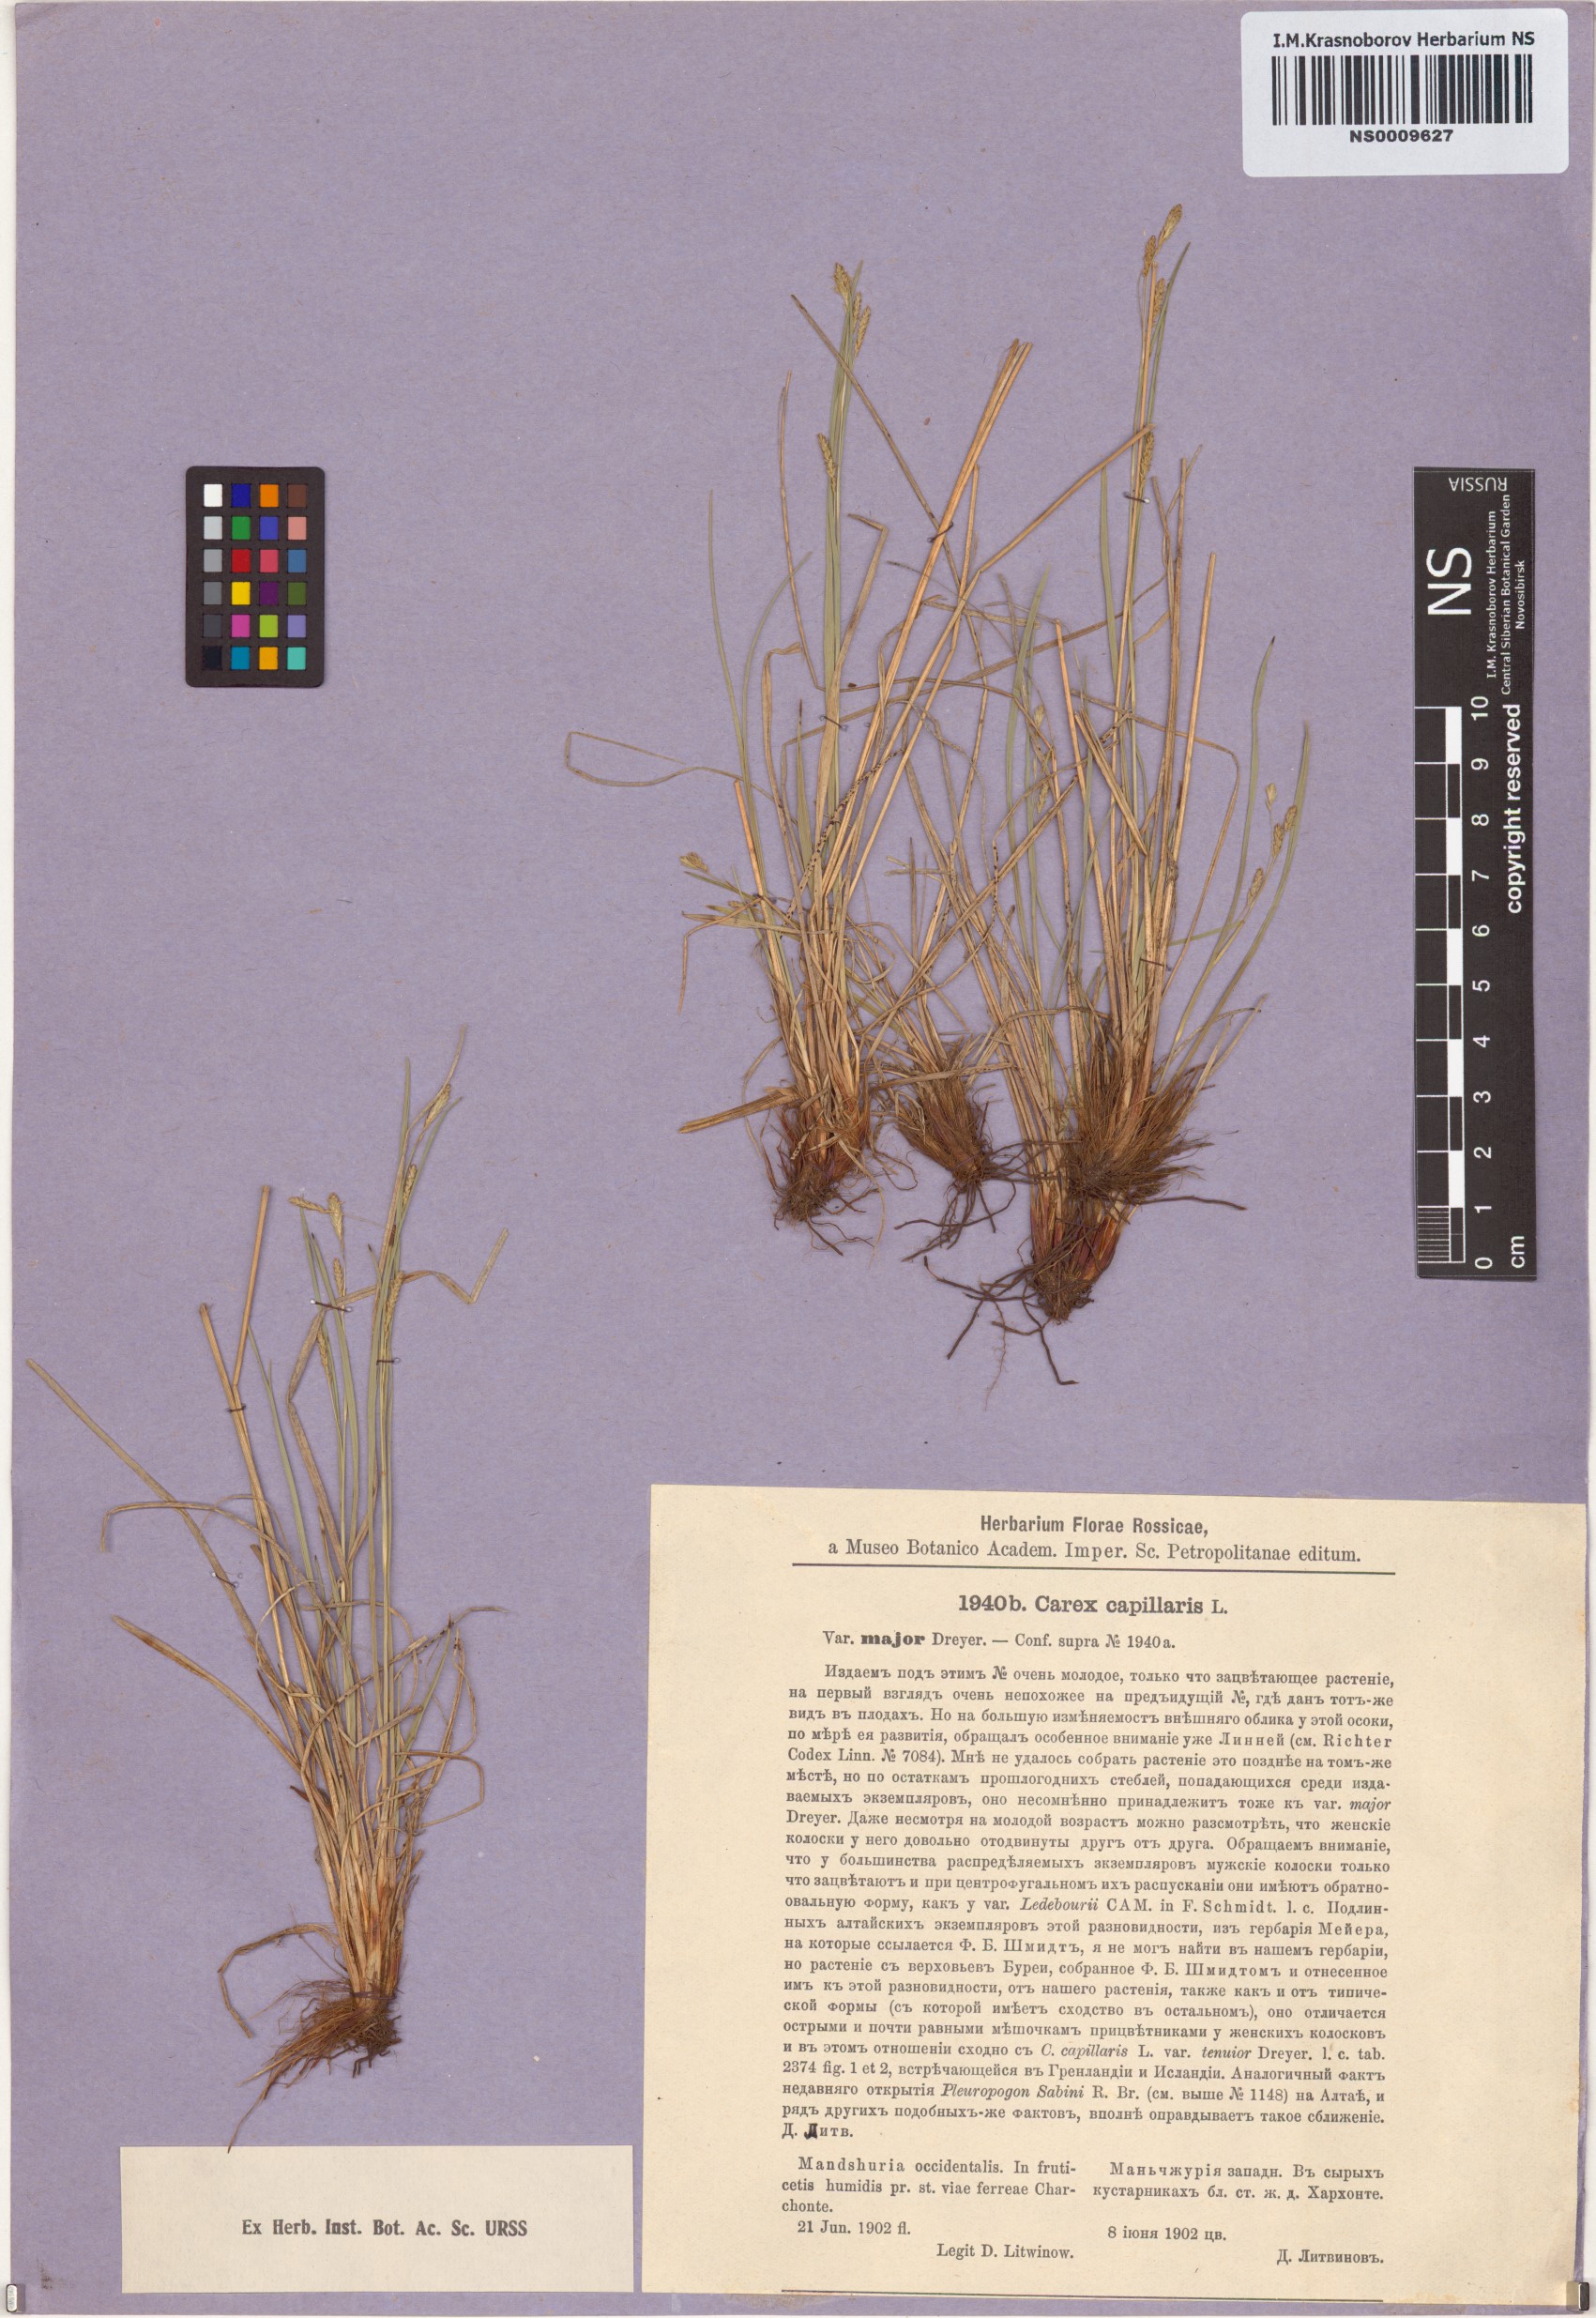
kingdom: Plantae
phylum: Tracheophyta
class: Liliopsida
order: Poales
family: Cyperaceae
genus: Carex
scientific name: Carex capillaris
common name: Hair sedge
